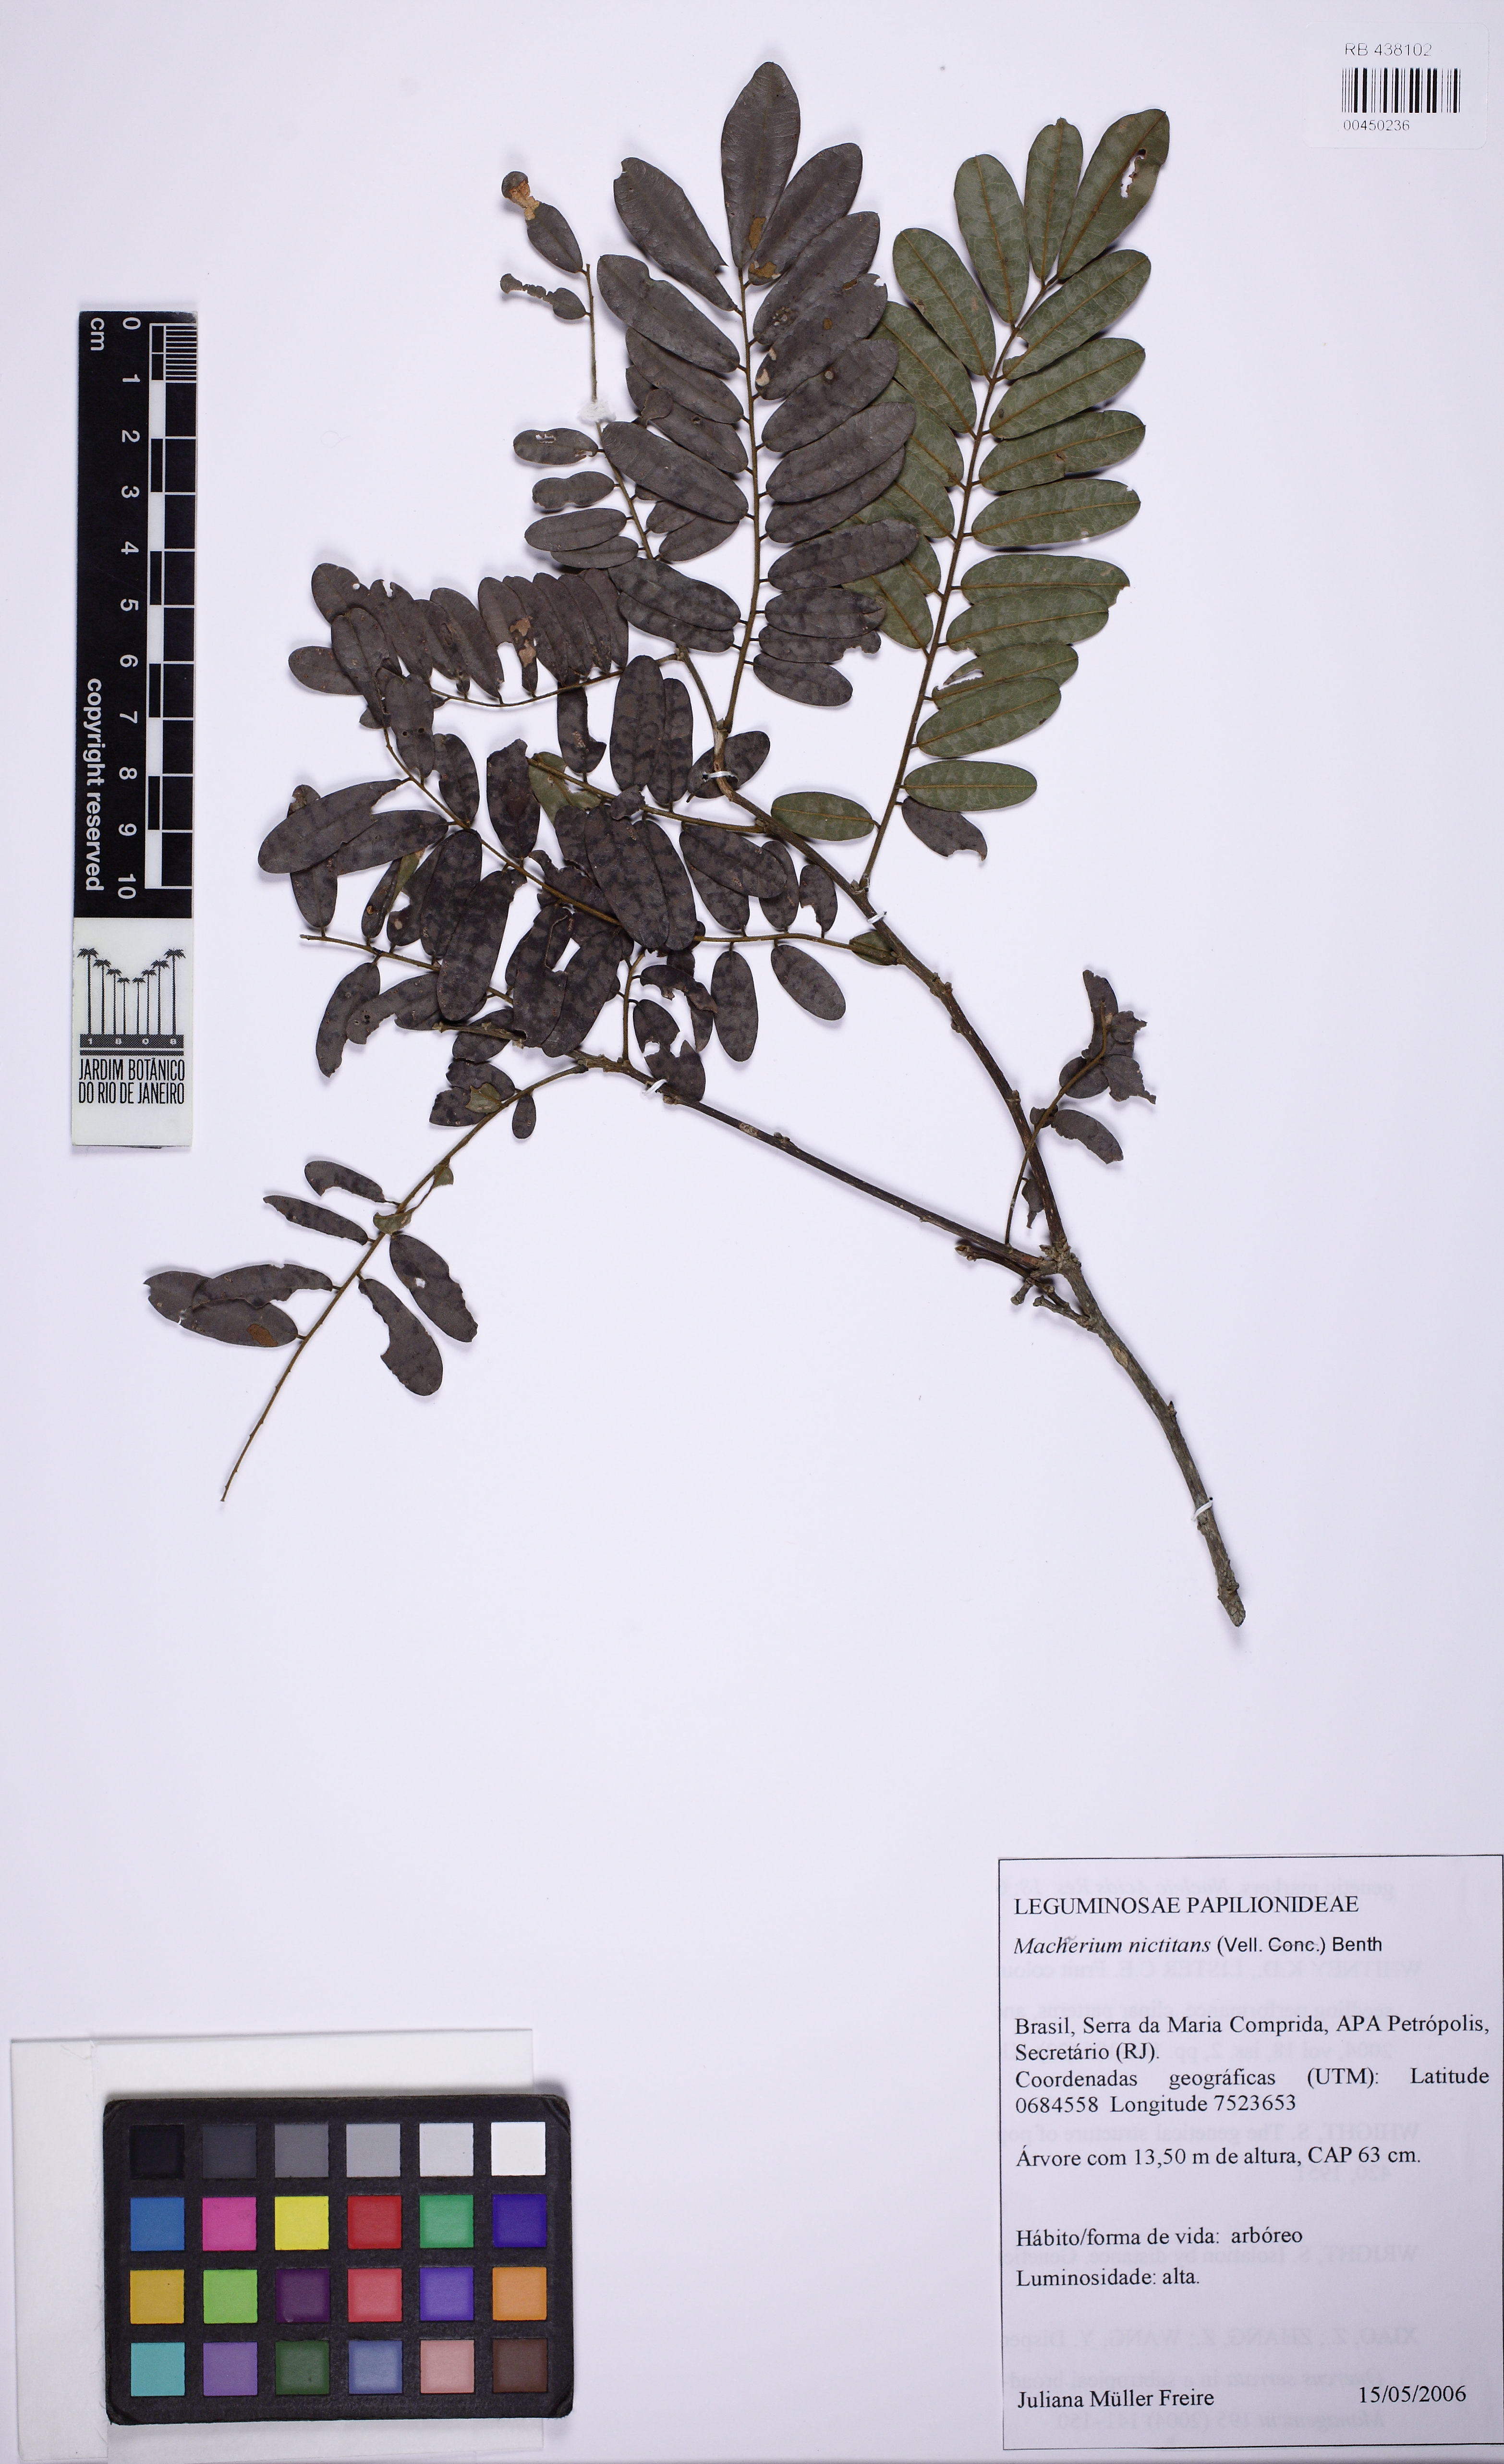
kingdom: Plantae
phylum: Tracheophyta
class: Magnoliopsida
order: Fabales
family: Fabaceae
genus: Machaerium
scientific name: Machaerium nyctitans
